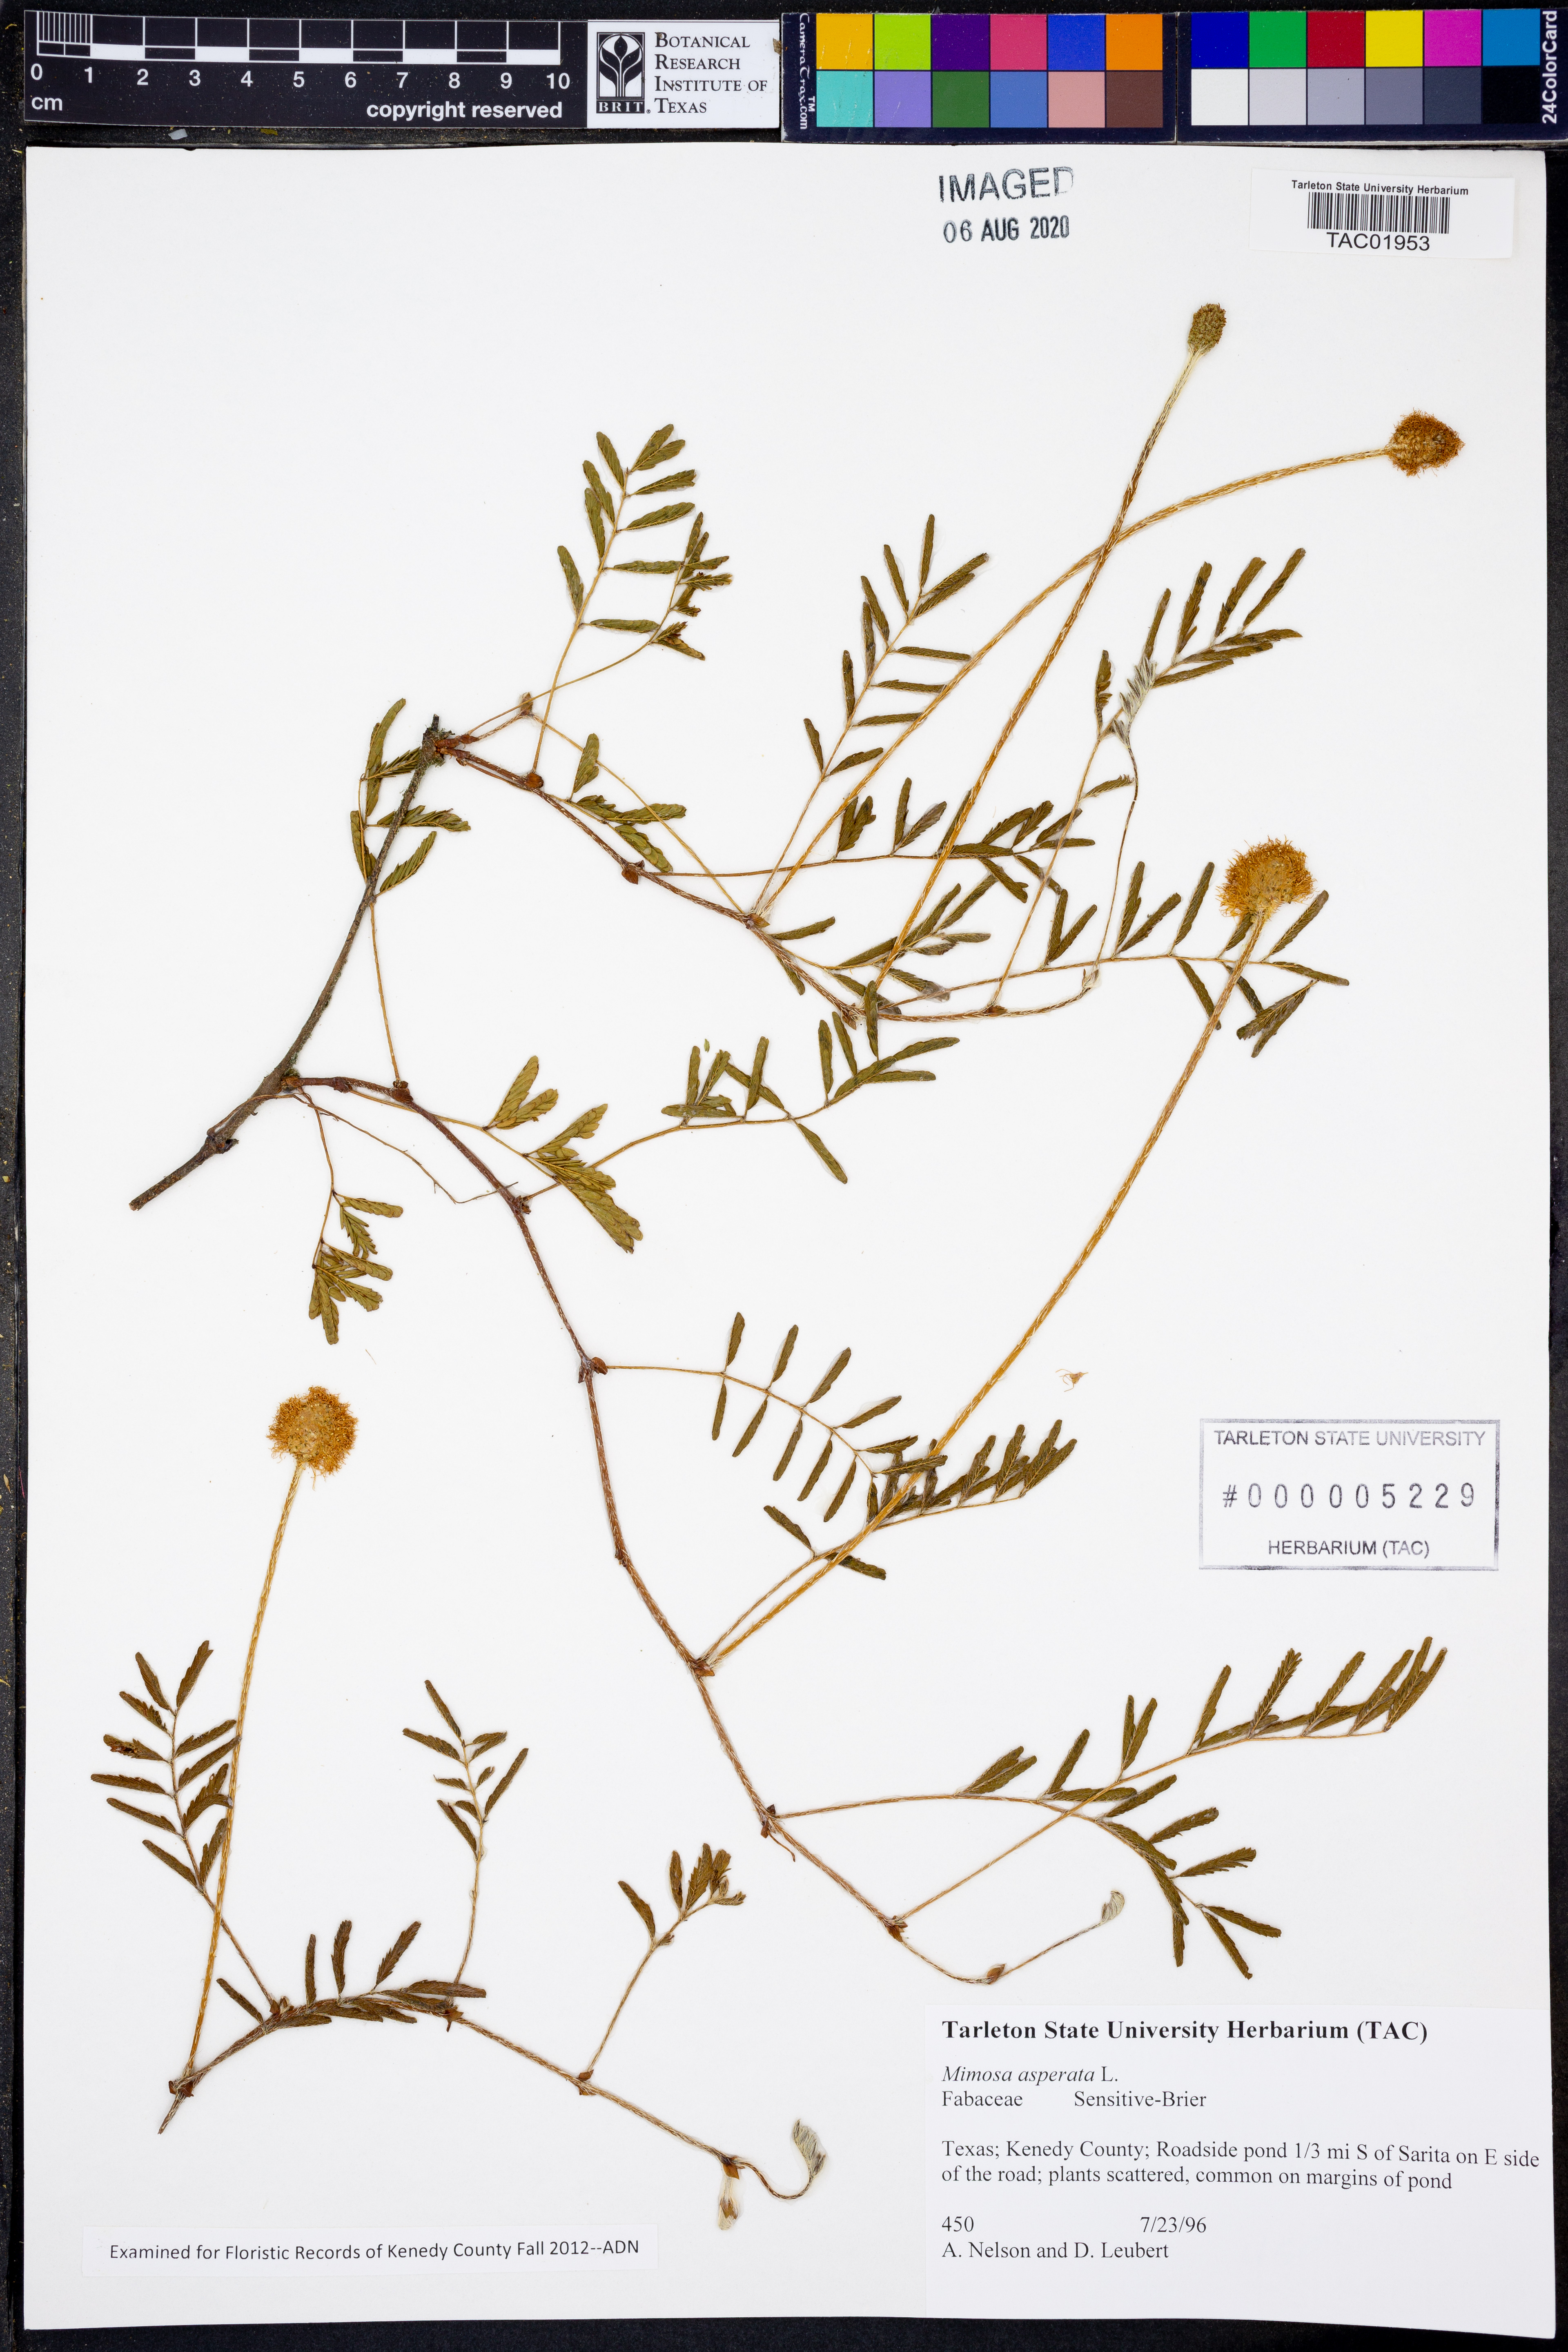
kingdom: Plantae
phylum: Tracheophyta
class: Magnoliopsida
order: Fabales
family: Fabaceae
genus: Mimosa
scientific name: Mimosa pigra
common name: Black mimosa
